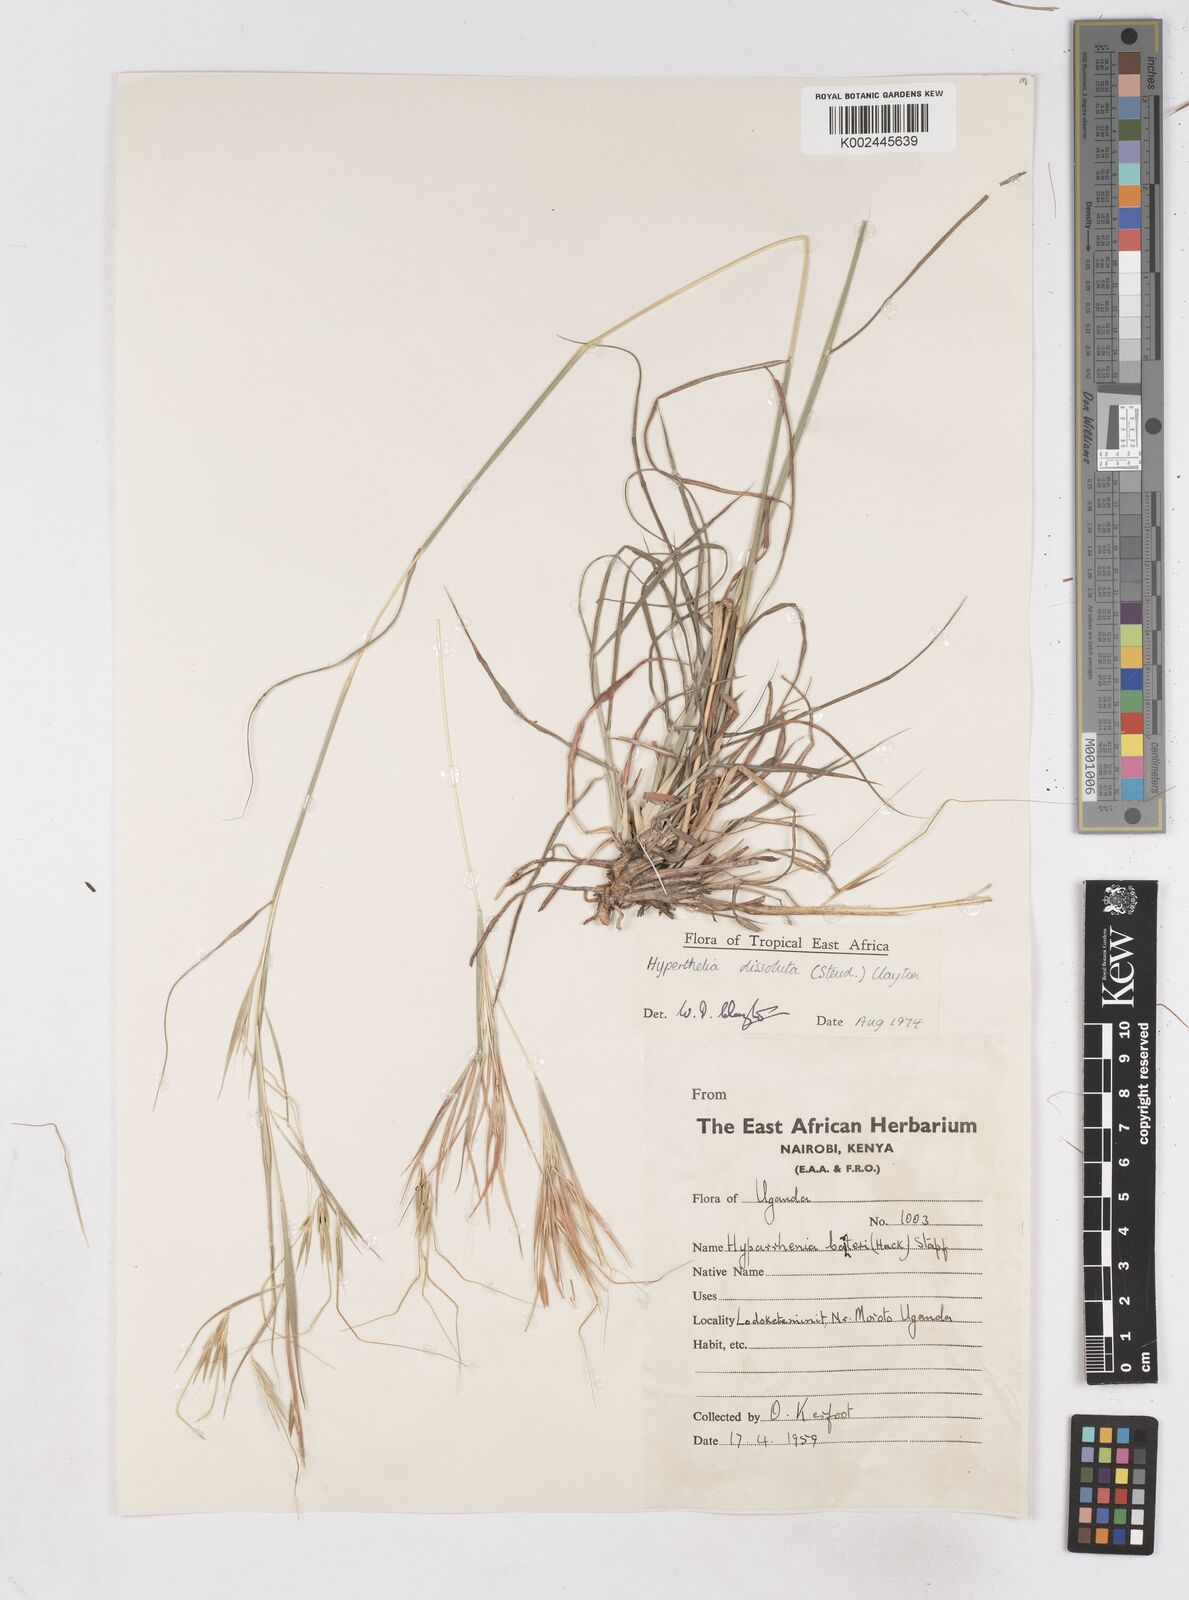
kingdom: Plantae
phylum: Tracheophyta
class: Liliopsida
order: Poales
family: Poaceae
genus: Hyperthelia
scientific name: Hyperthelia dissoluta
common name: Yellow thatching grass
